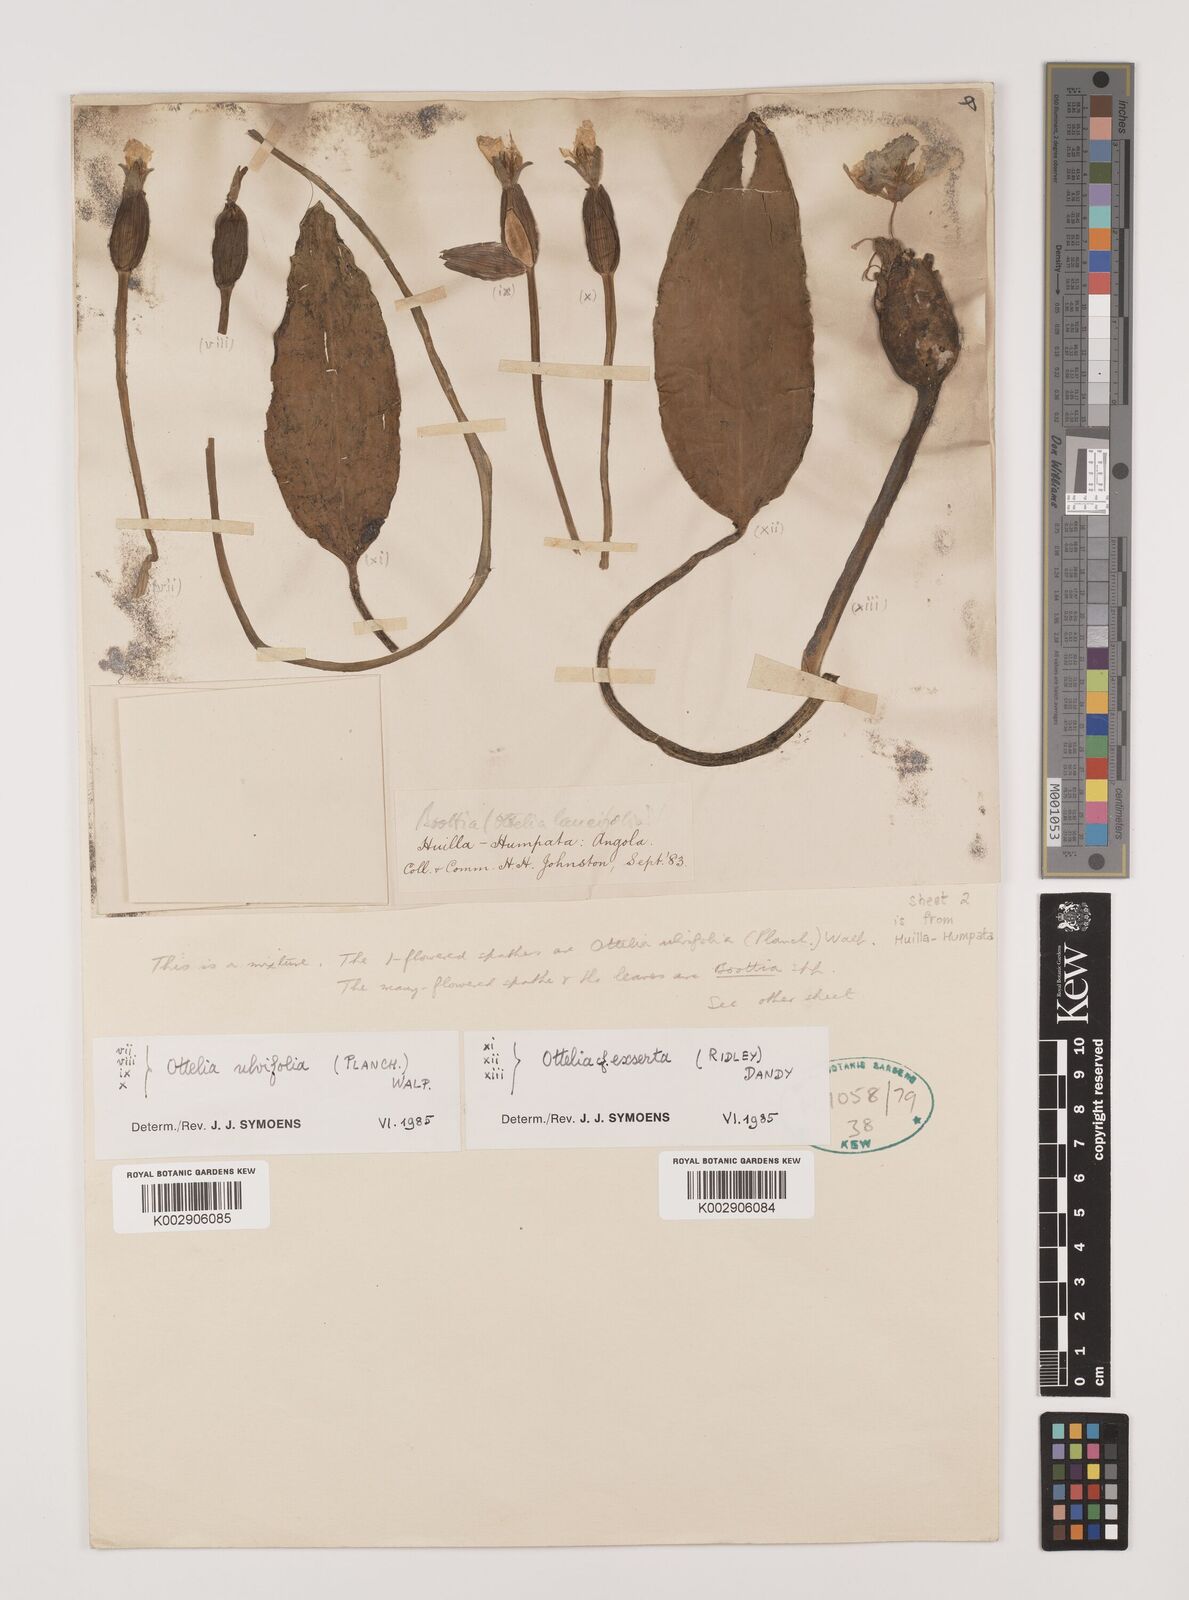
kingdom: Plantae
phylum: Tracheophyta
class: Liliopsida
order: Alismatales
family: Hydrocharitaceae
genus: Ottelia
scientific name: Ottelia ulvifolia
